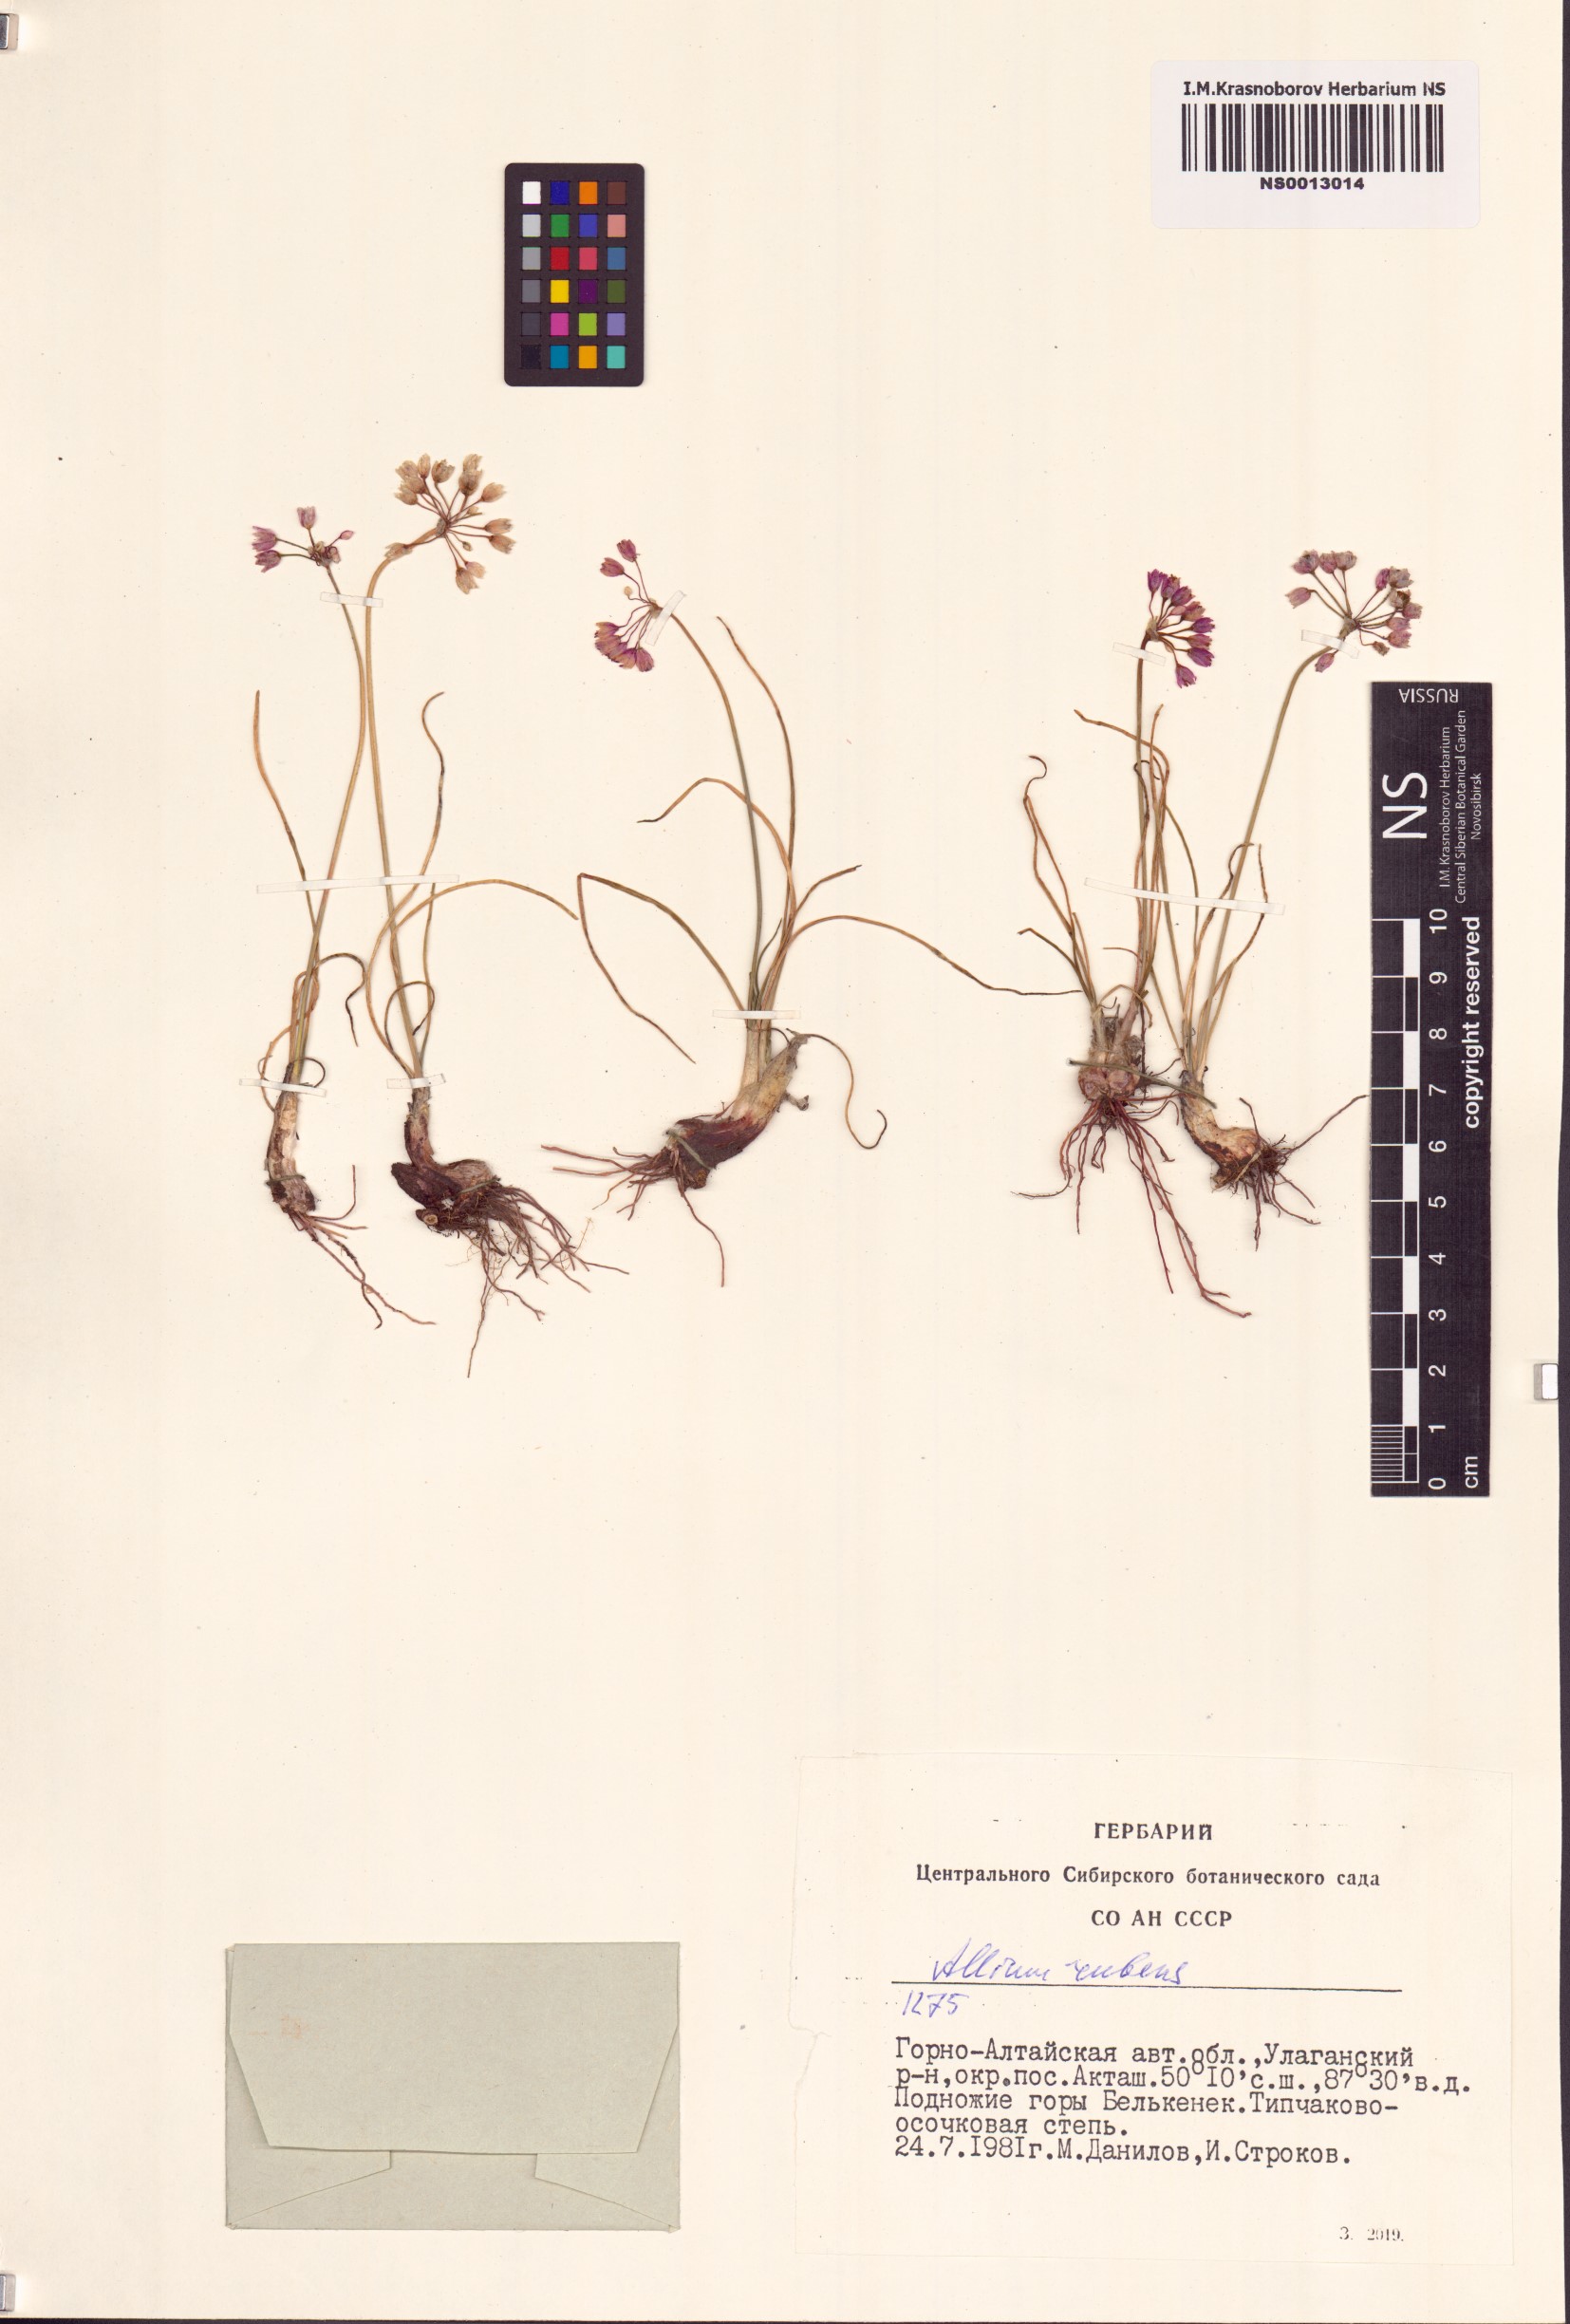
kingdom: Plantae
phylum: Tracheophyta
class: Liliopsida
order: Asparagales
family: Amaryllidaceae
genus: Allium
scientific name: Allium rubens
